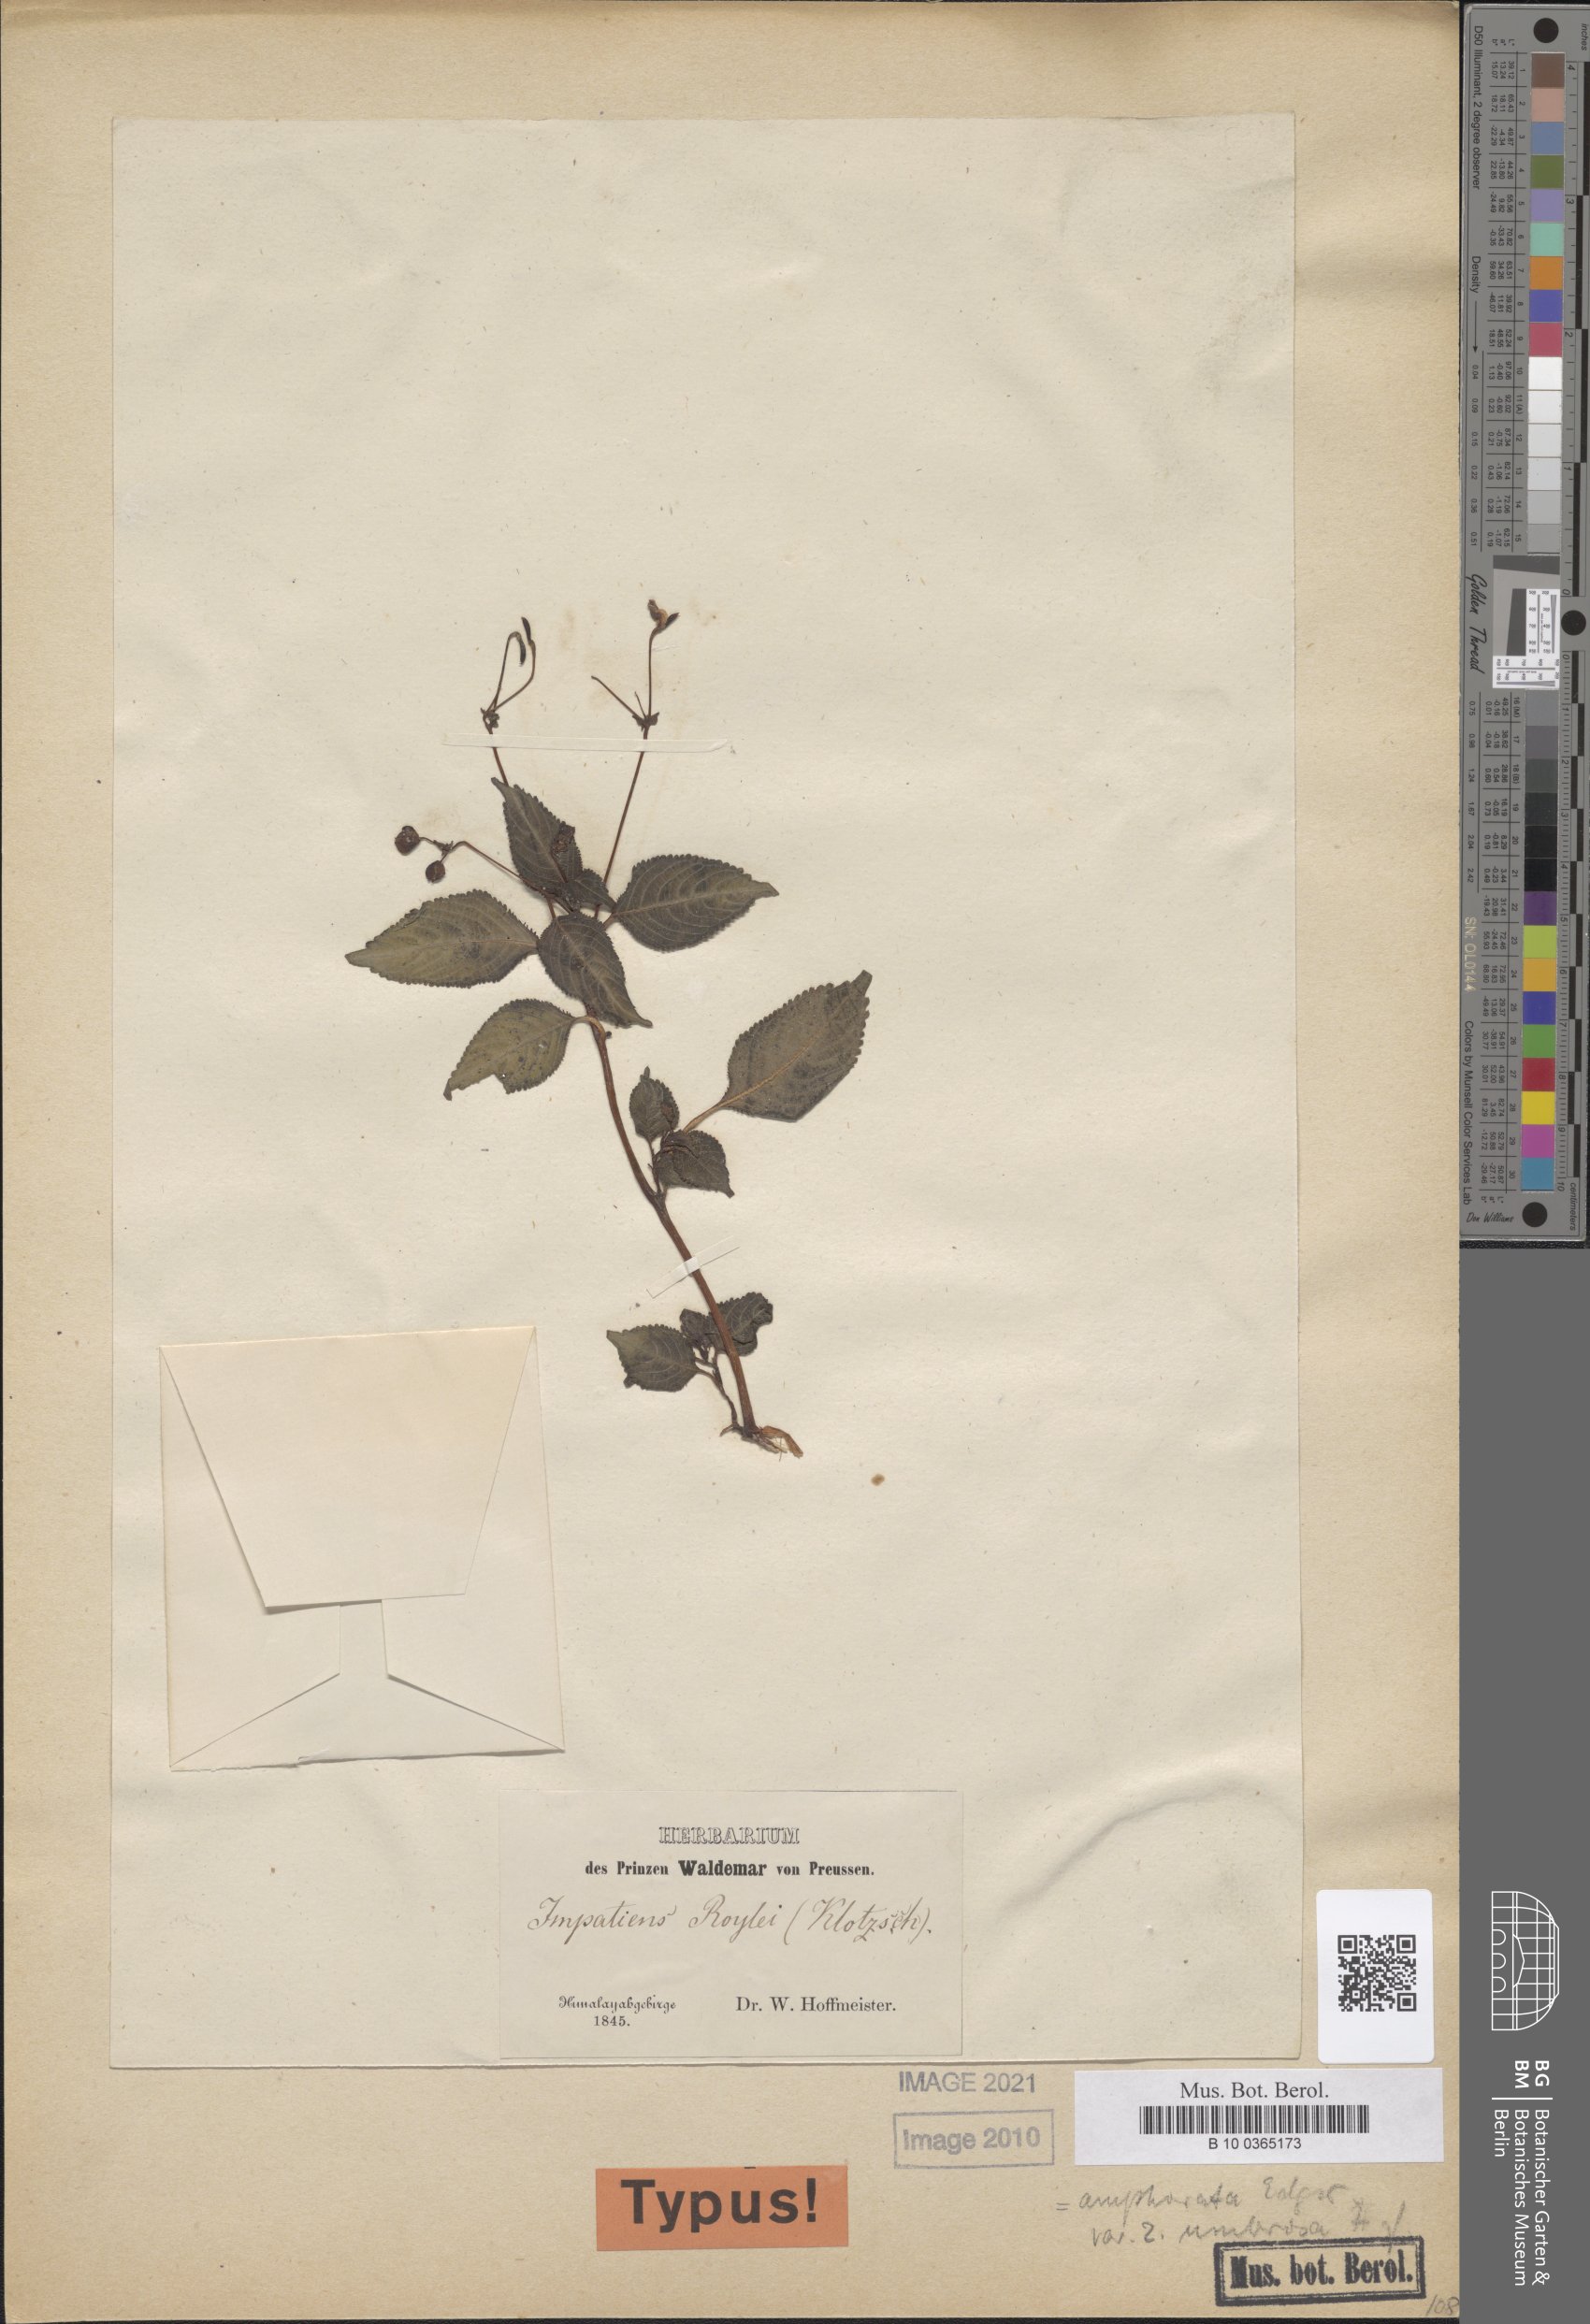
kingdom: Plantae
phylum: Tracheophyta
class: Magnoliopsida
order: Ericales
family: Balsaminaceae
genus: Impatiens
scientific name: Impatiens bicolor
